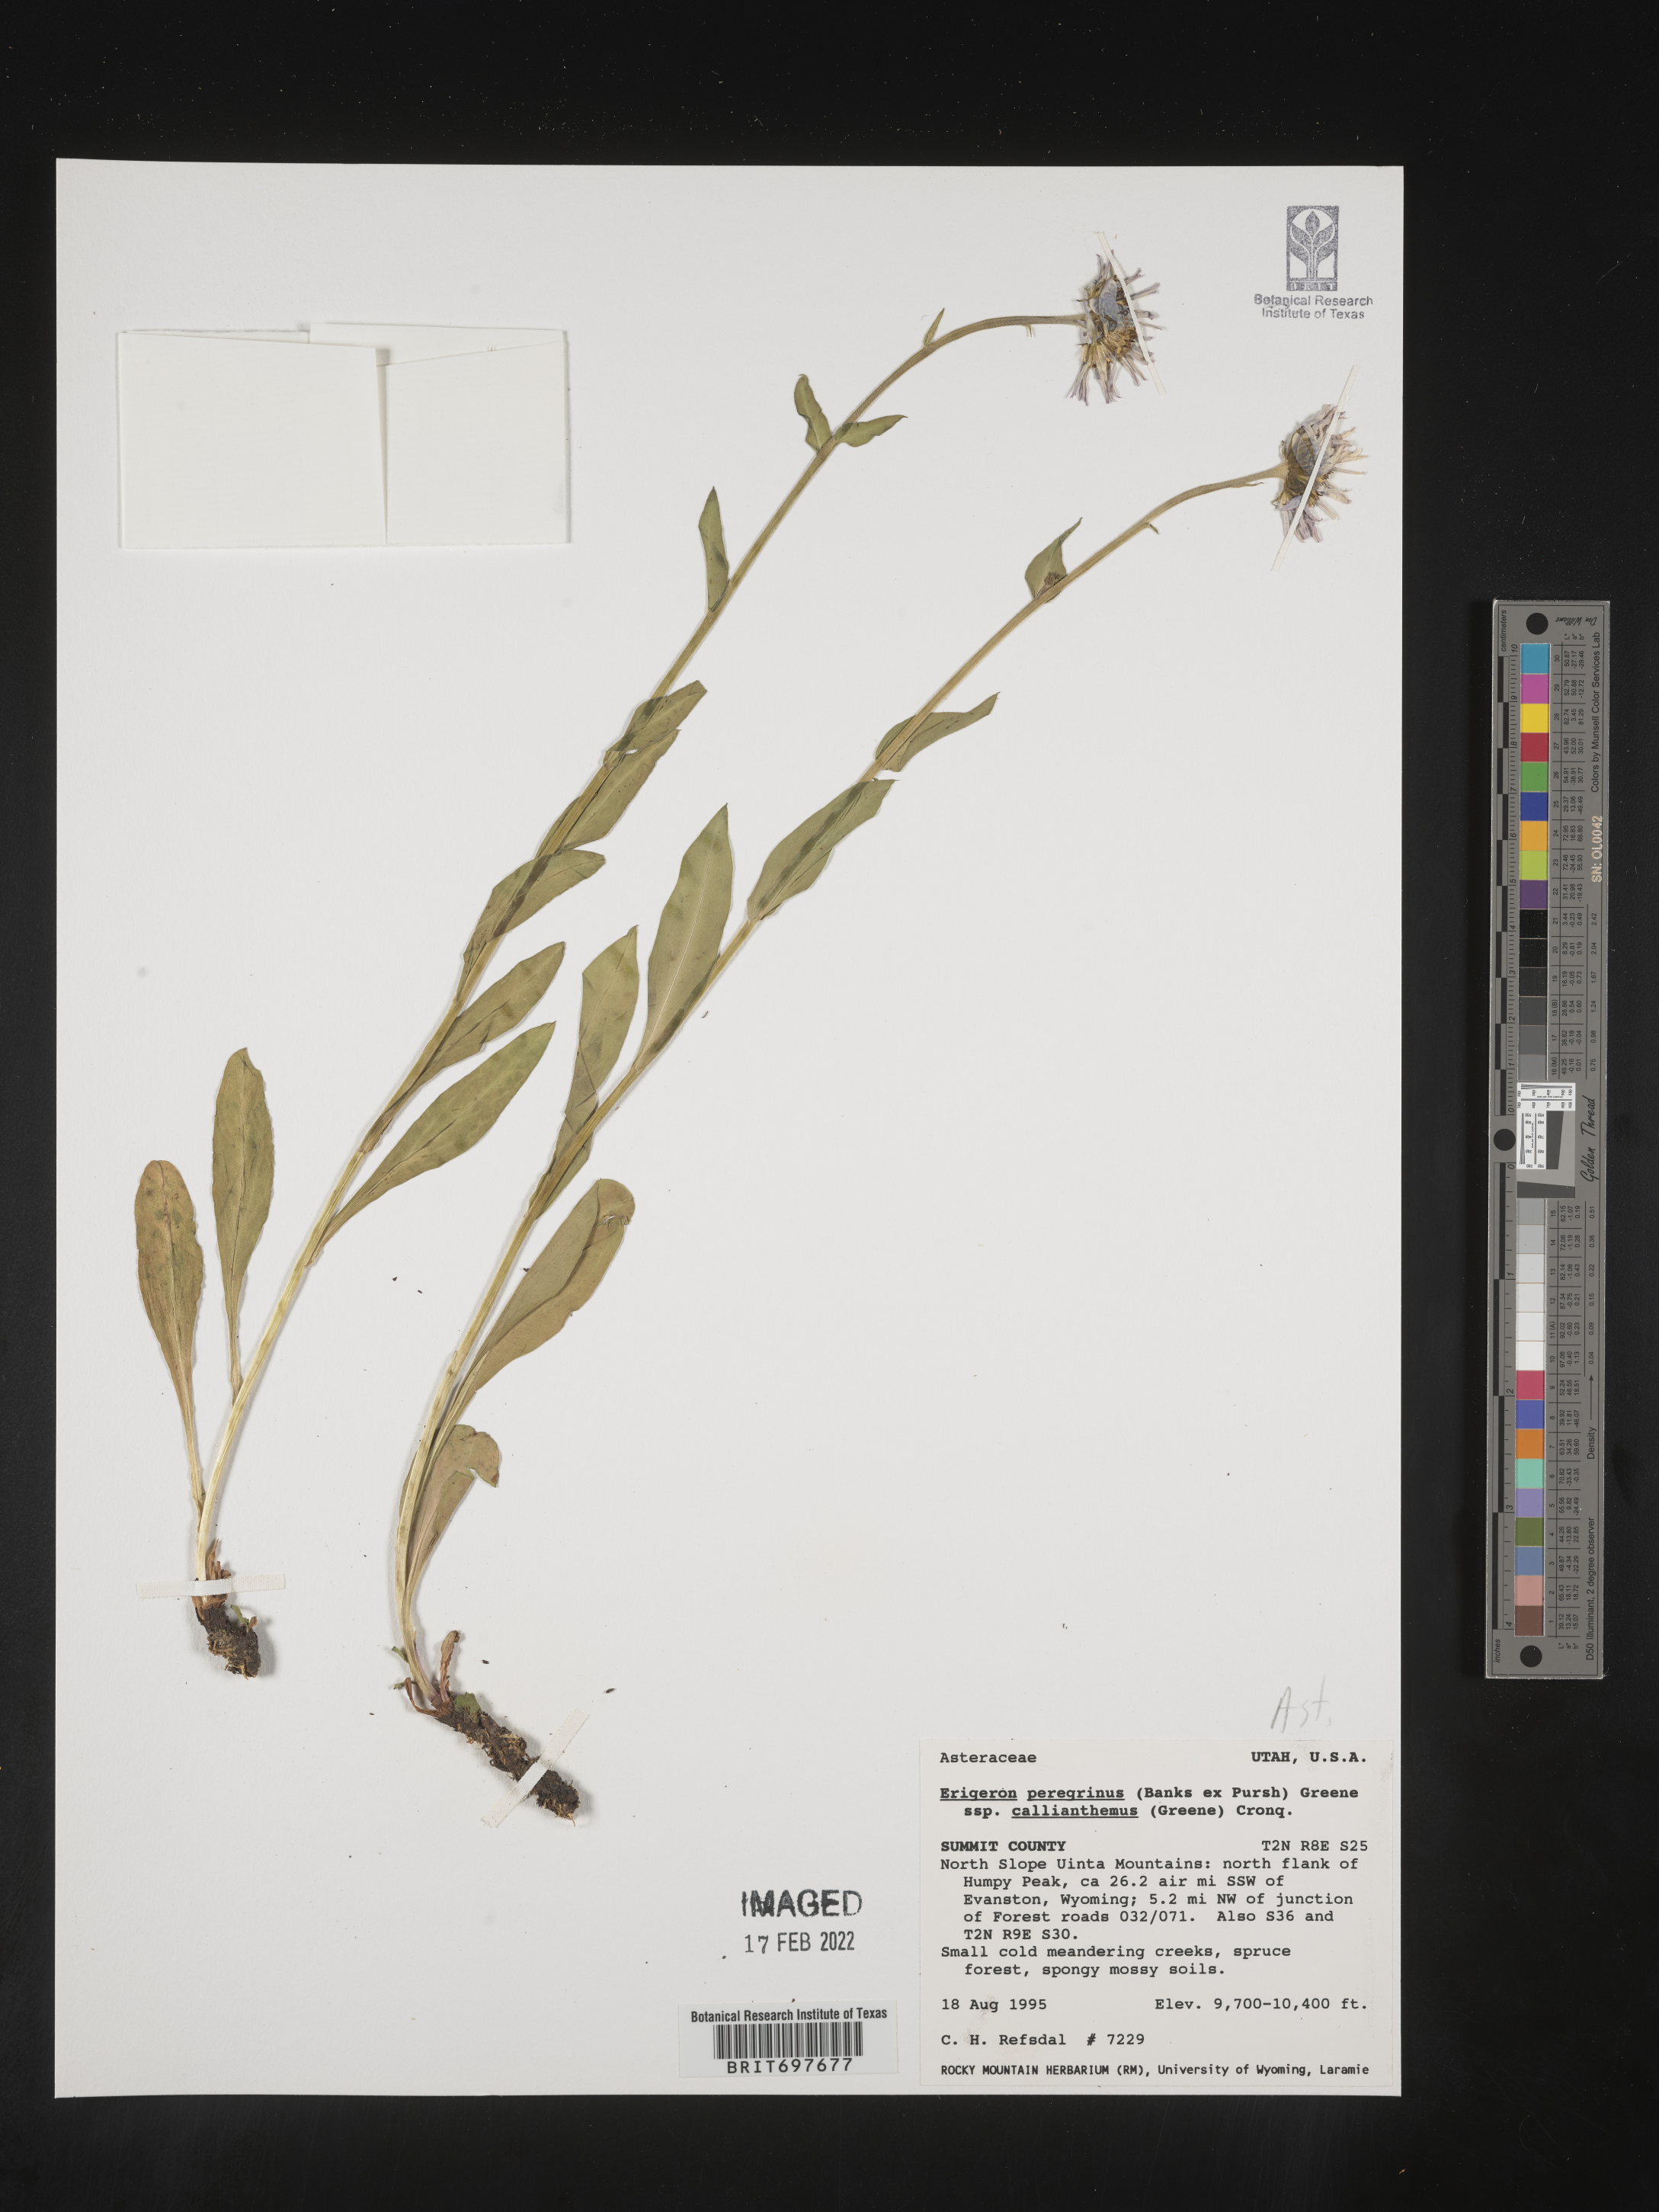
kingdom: Plantae
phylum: Tracheophyta
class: Magnoliopsida
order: Asterales
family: Asteraceae
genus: Erigeron
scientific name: Erigeron glacialis
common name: Subalpine fleabane
